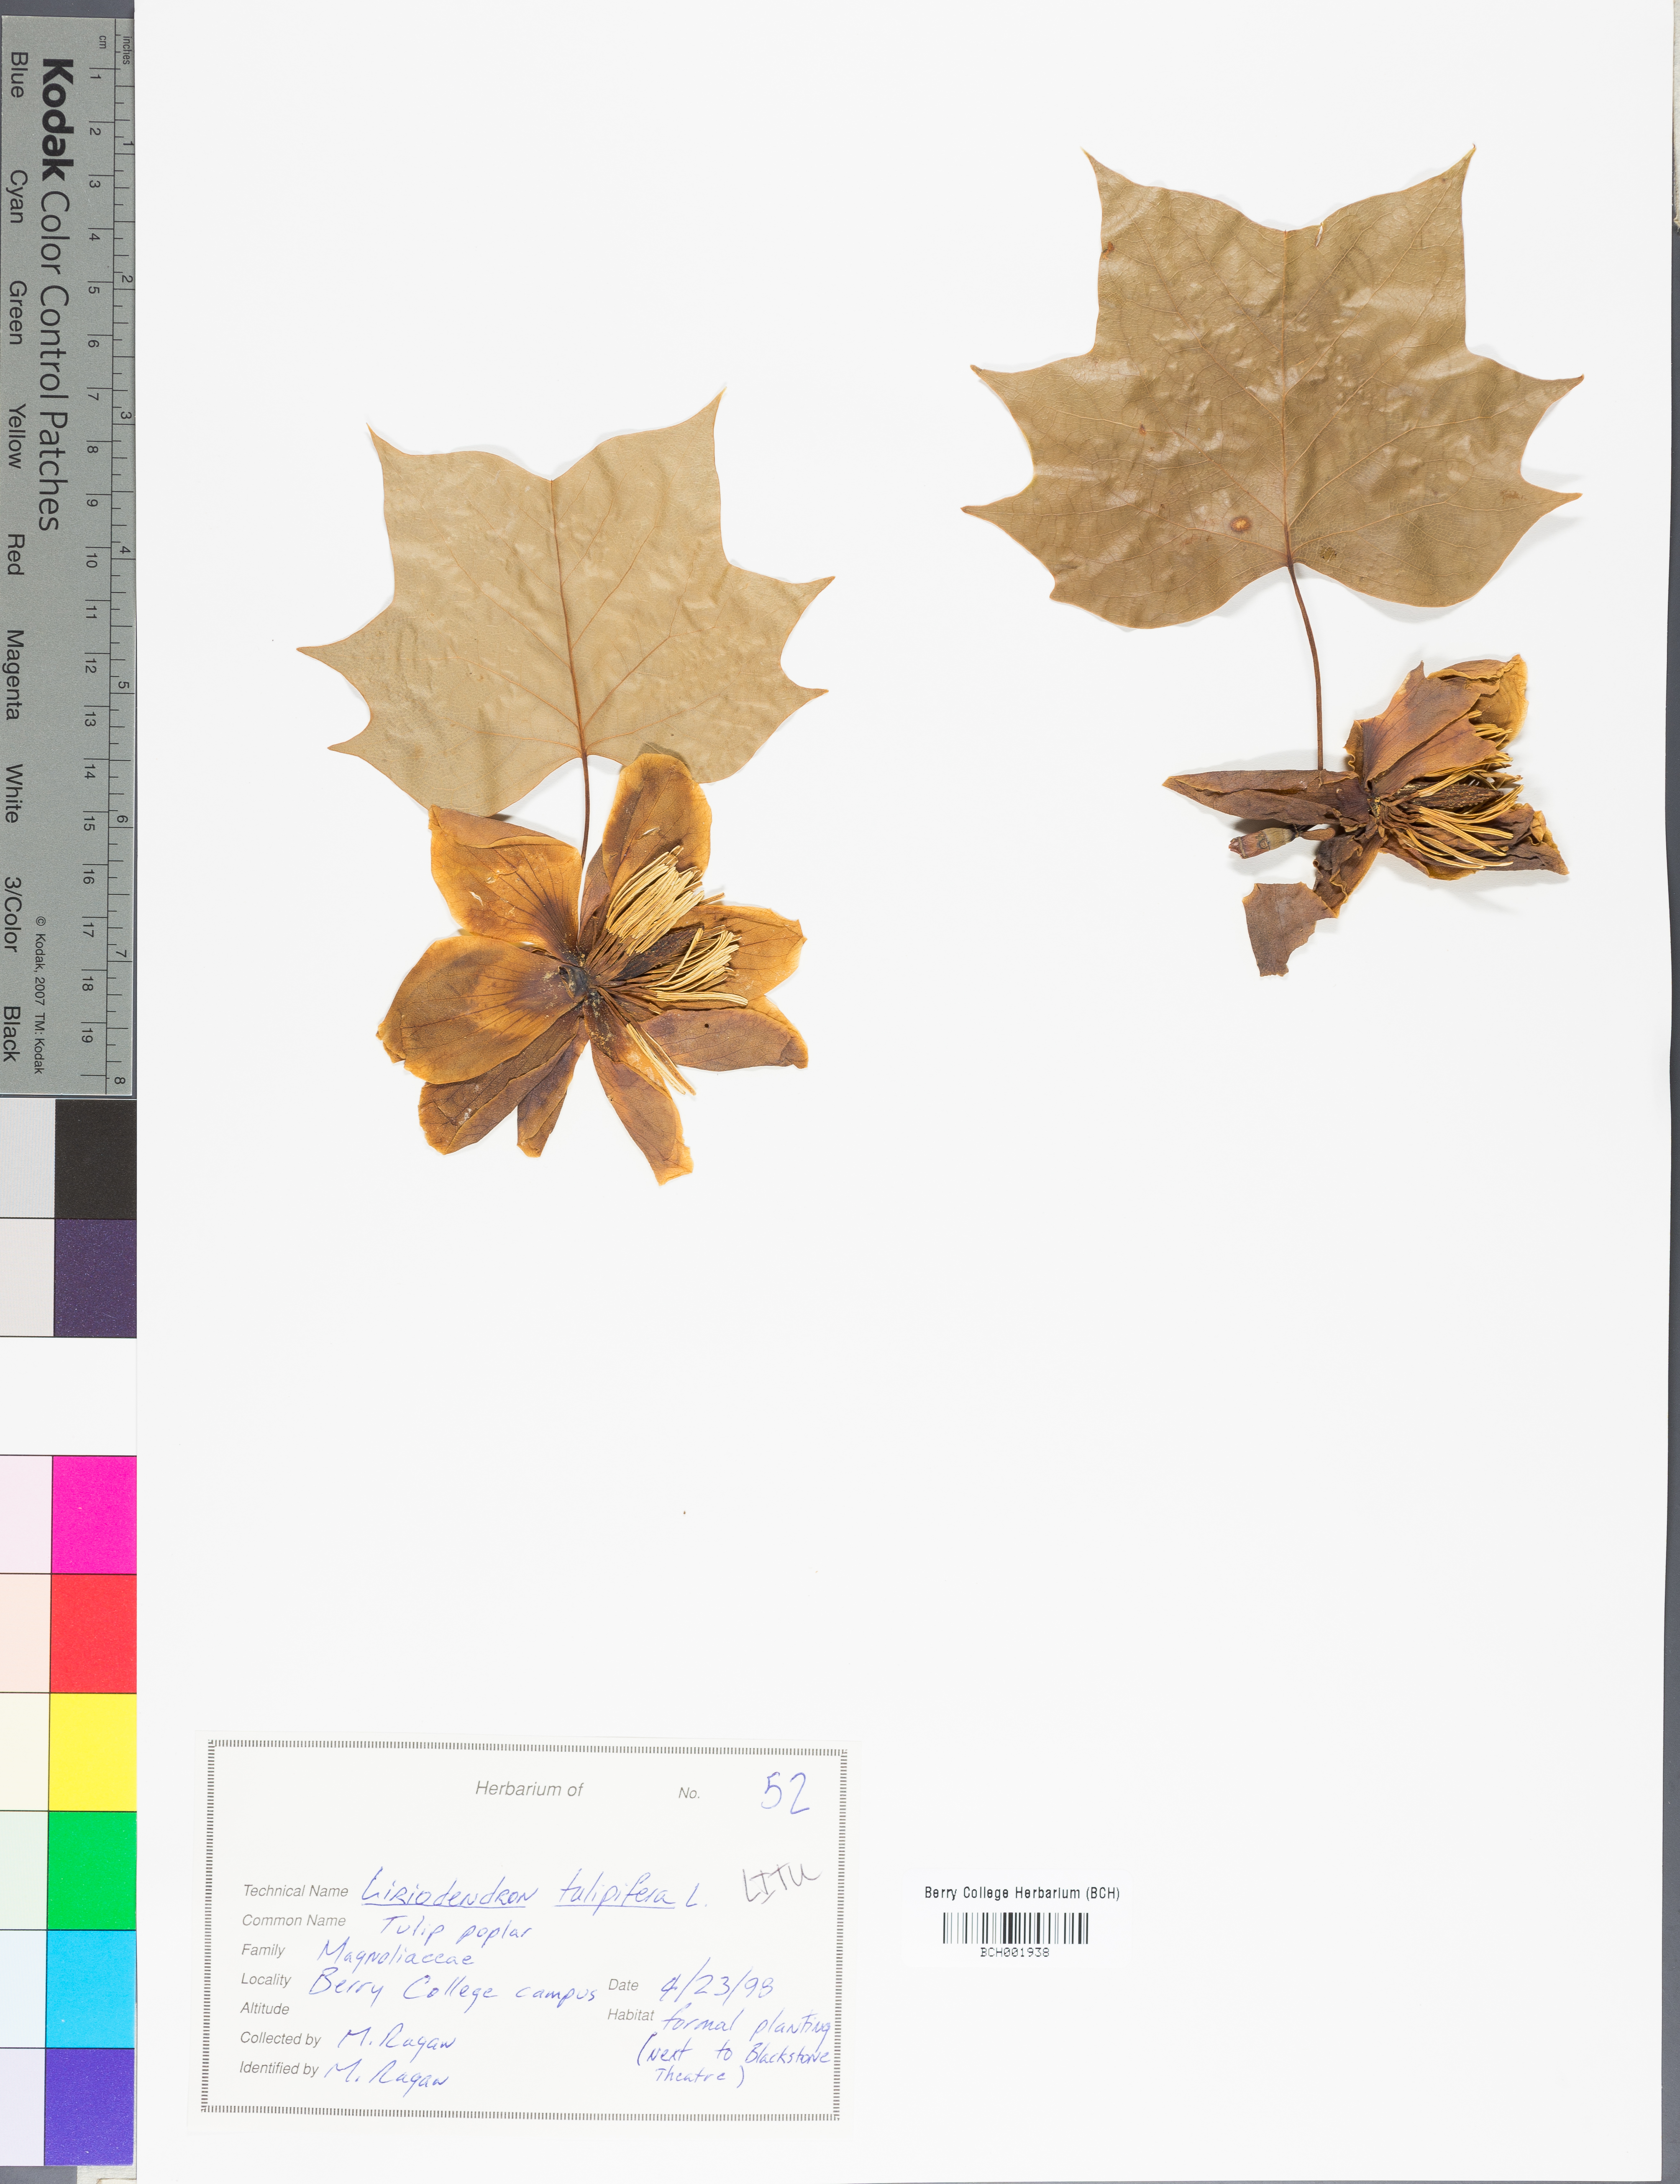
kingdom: Plantae
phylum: Tracheophyta
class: Magnoliopsida
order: Magnoliales
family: Magnoliaceae
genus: Liriodendron
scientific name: Liriodendron tulipifera
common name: Tulip tree
